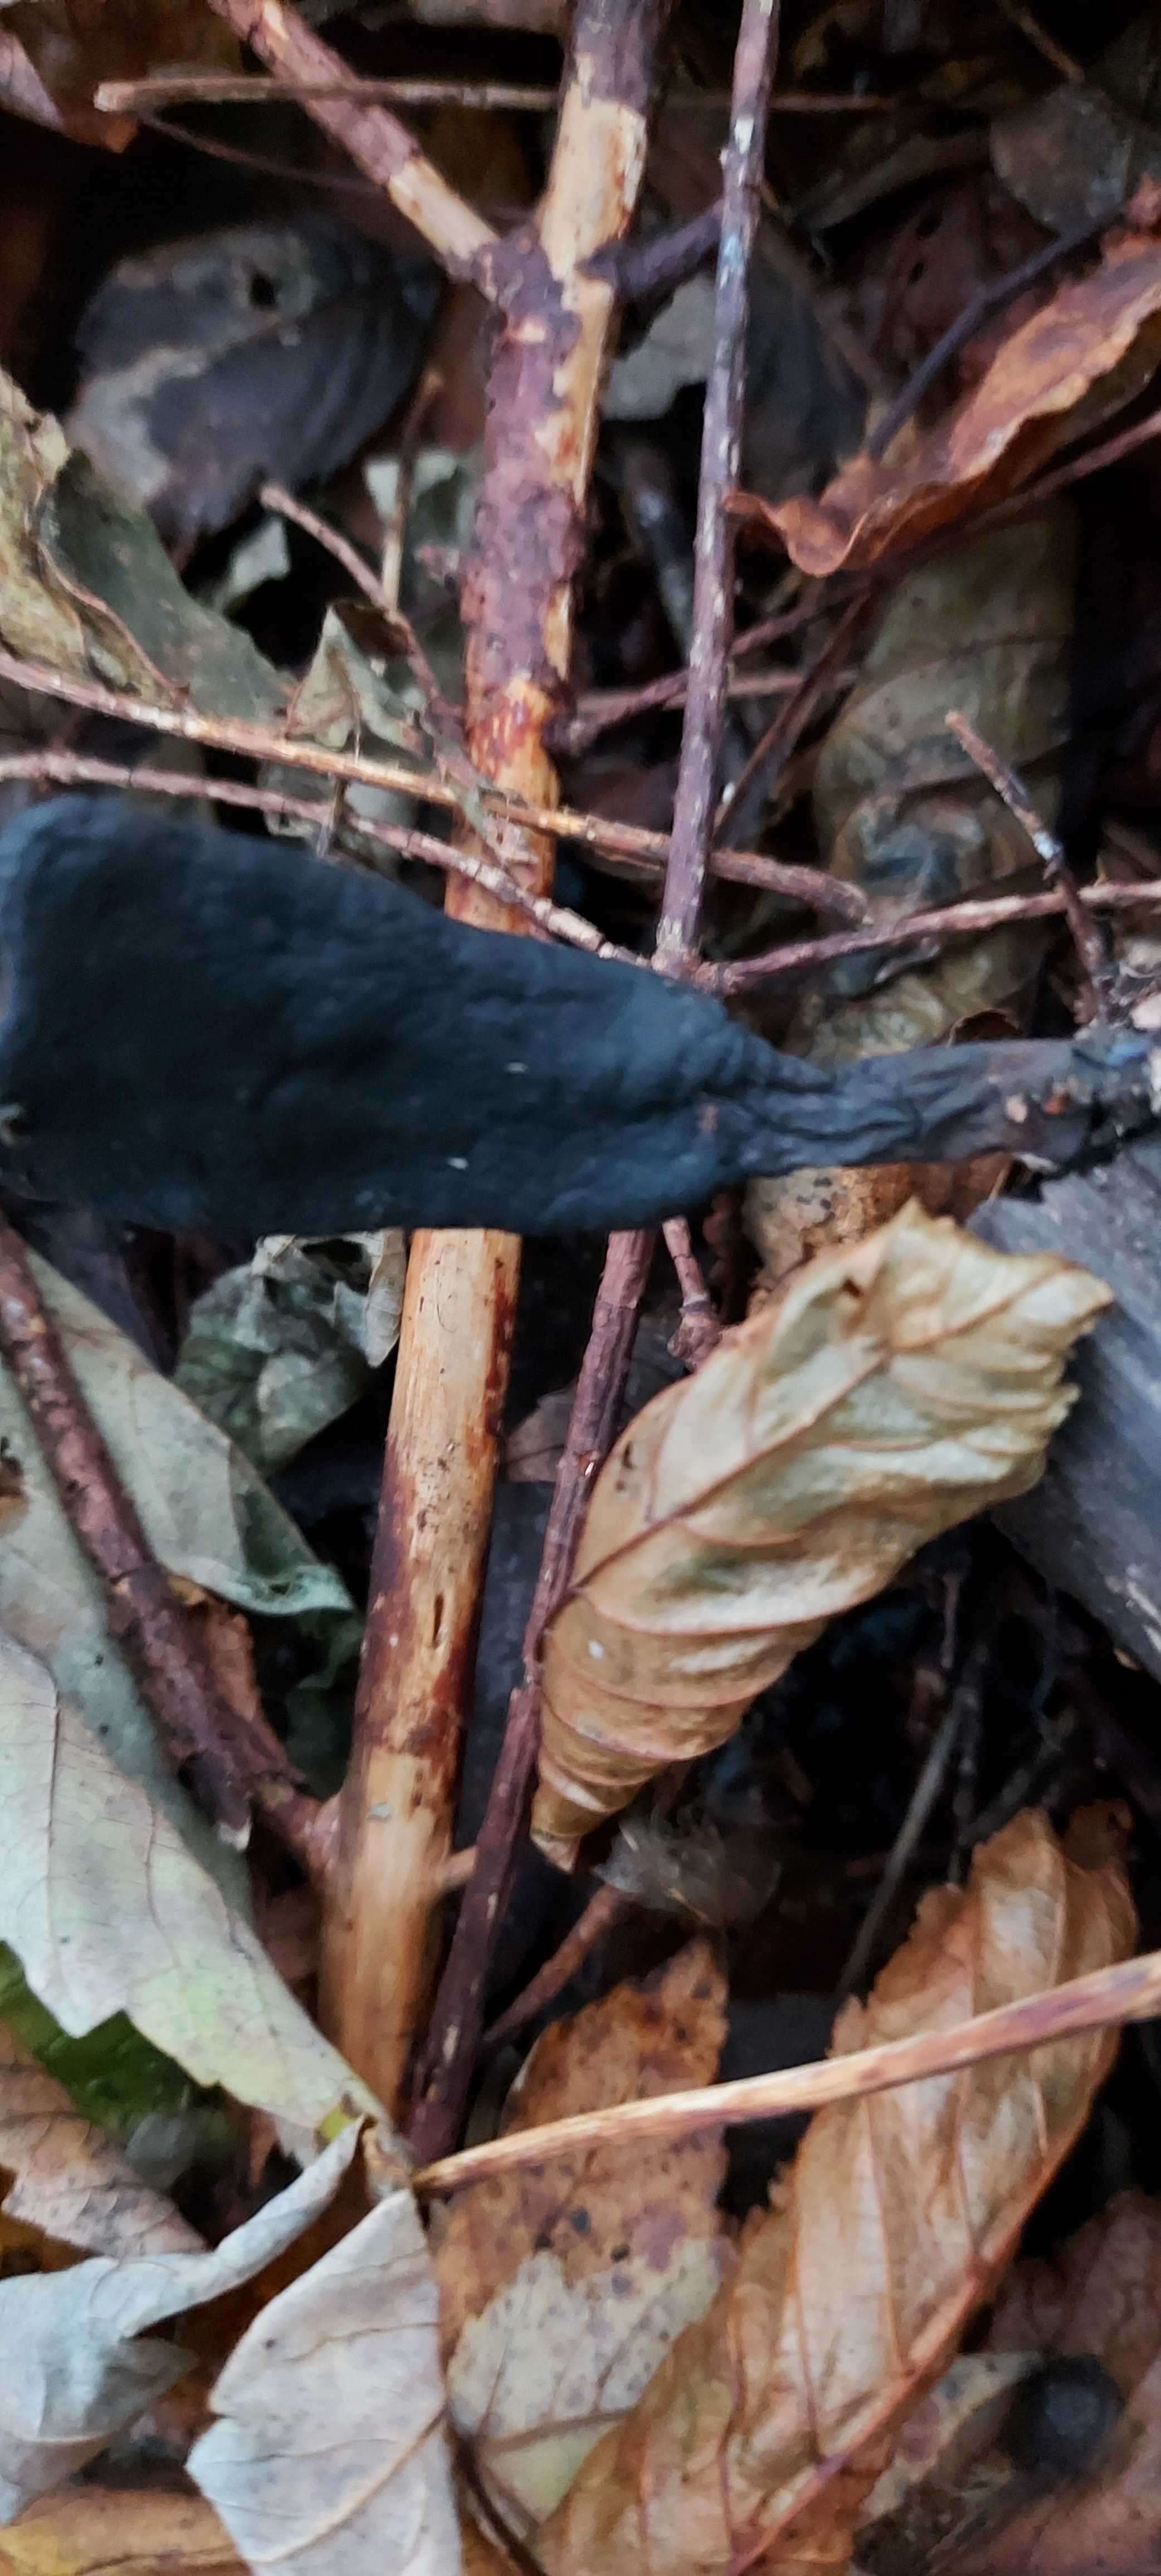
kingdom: Fungi
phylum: Ascomycota
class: Sordariomycetes
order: Xylariales
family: Xylariaceae
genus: Xylaria
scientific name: Xylaria longipes
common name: slank stødsvamp
